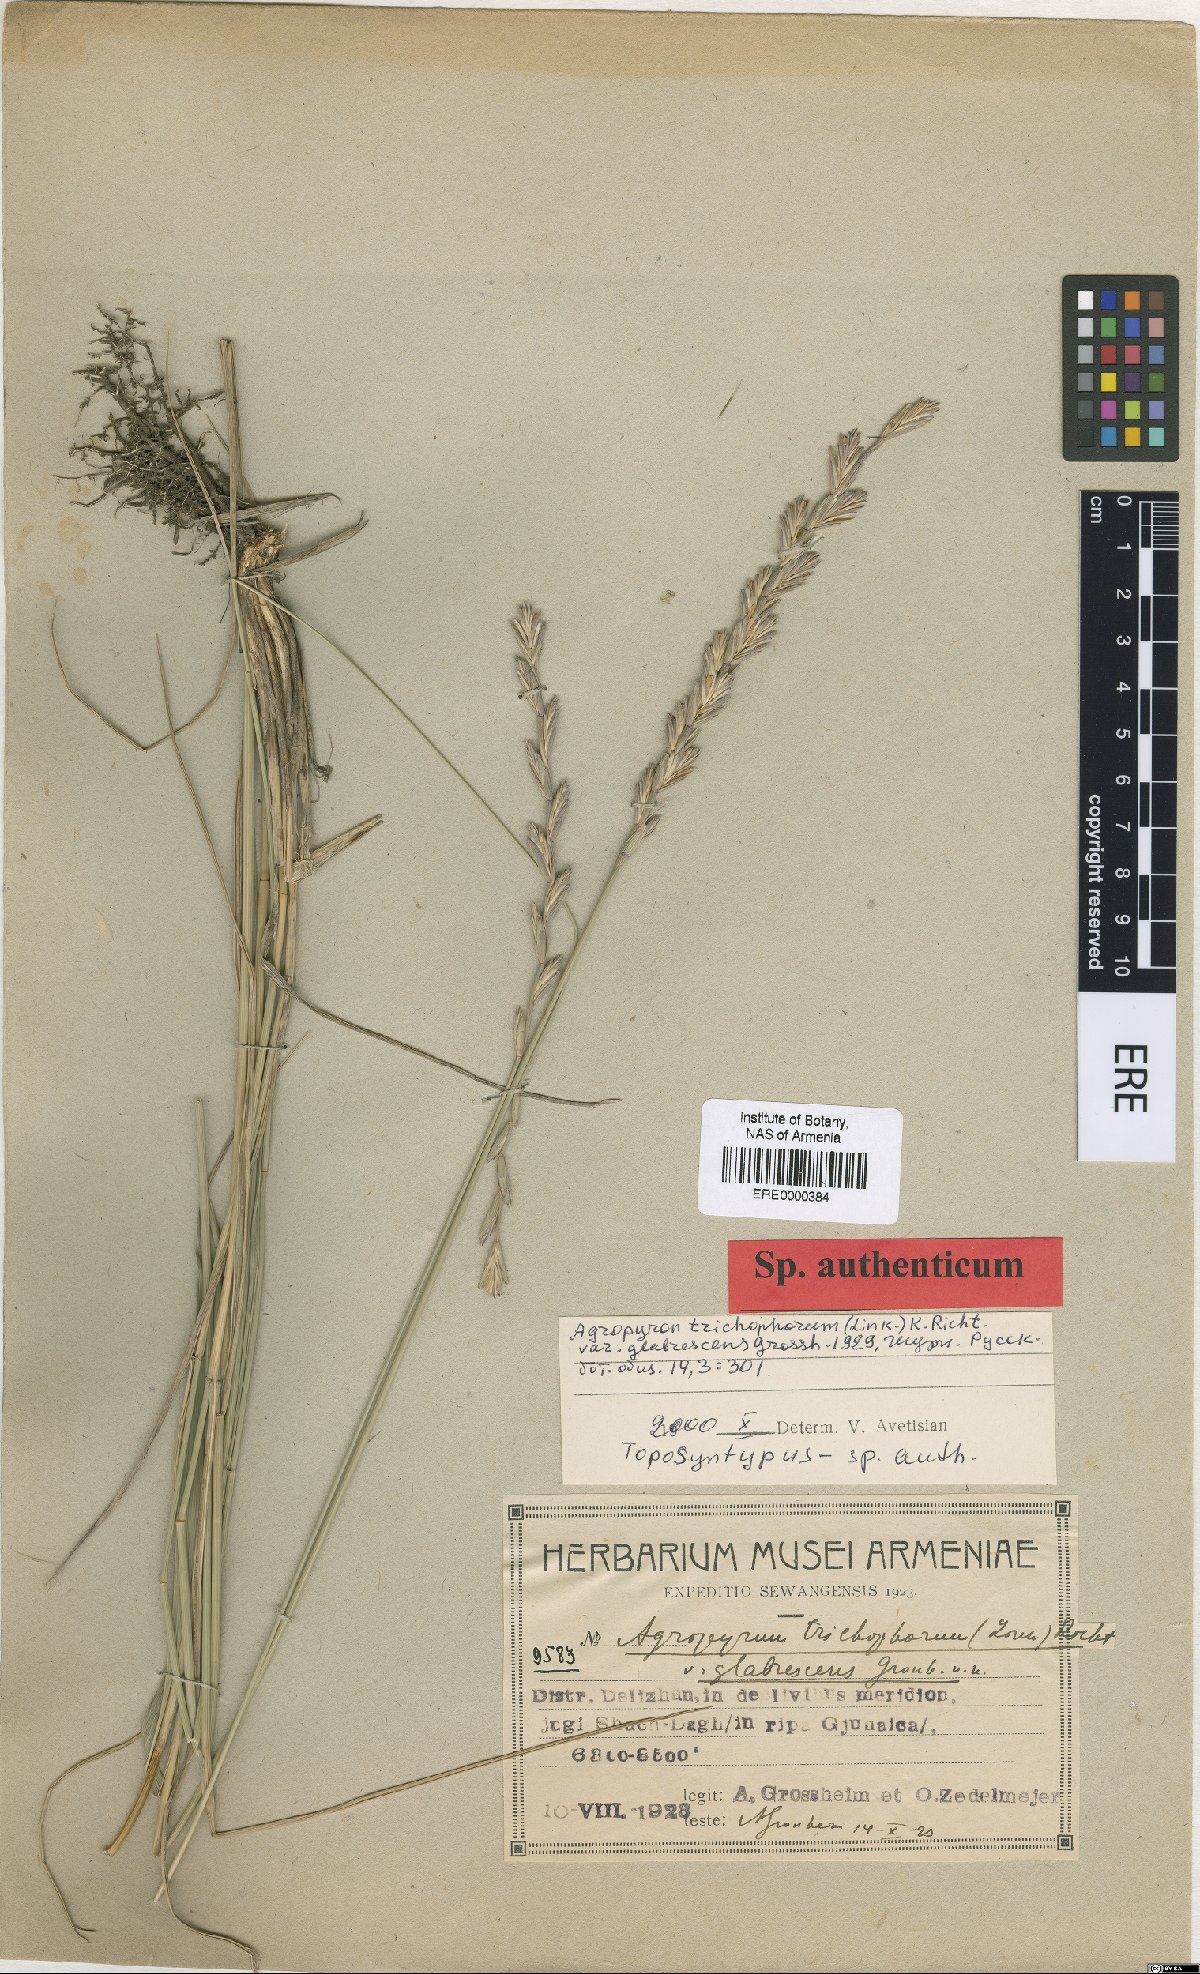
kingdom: Plantae
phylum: Tracheophyta
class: Liliopsida
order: Poales
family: Poaceae
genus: Thinopyrum
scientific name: Thinopyrum intermedium
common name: Intermediate wheatgrass
